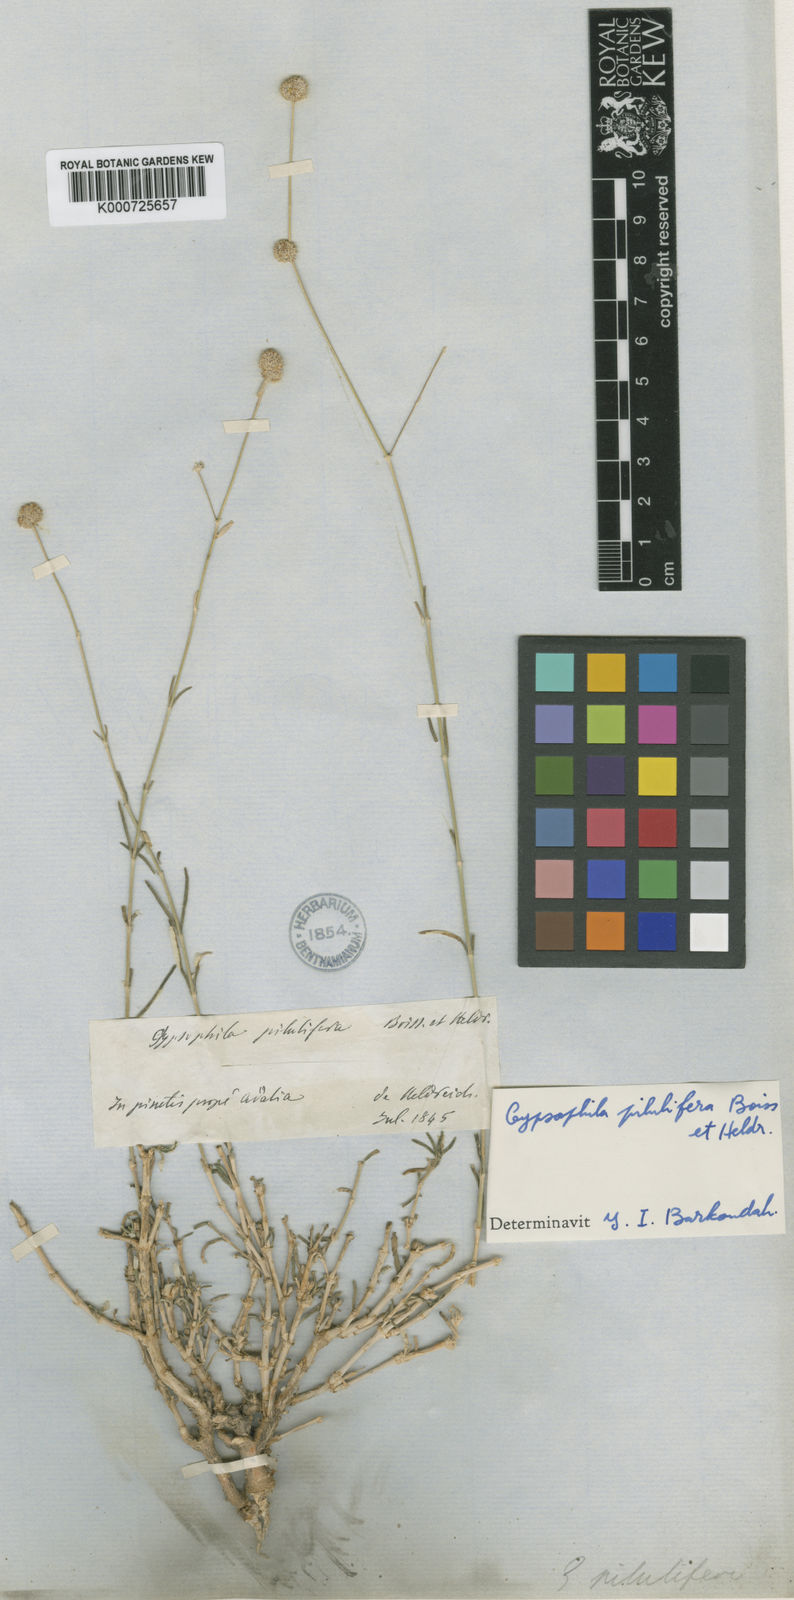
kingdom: Plantae
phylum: Tracheophyta
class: Magnoliopsida
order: Caryophyllales
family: Caryophyllaceae
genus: Gypsophila
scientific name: Gypsophila pilulifera
